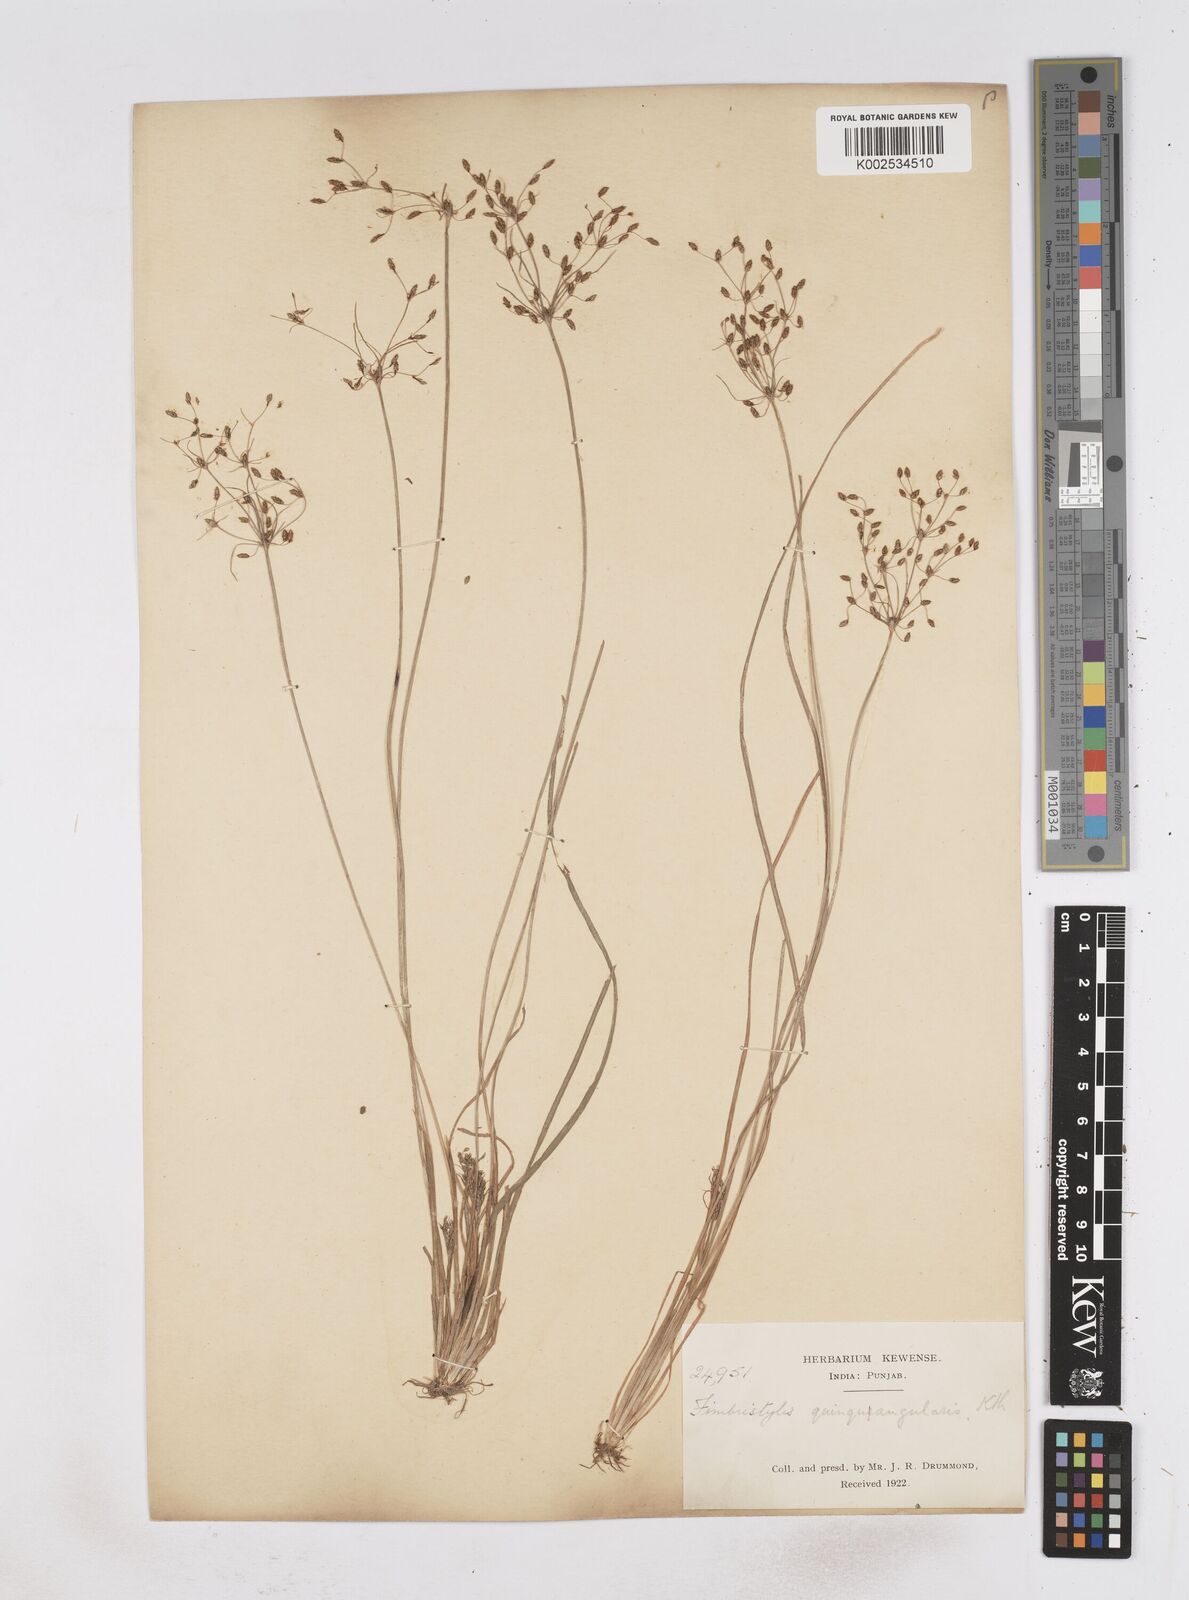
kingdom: Plantae
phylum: Tracheophyta
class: Liliopsida
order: Poales
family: Cyperaceae
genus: Fimbristylis
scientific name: Fimbristylis quinquangularis
